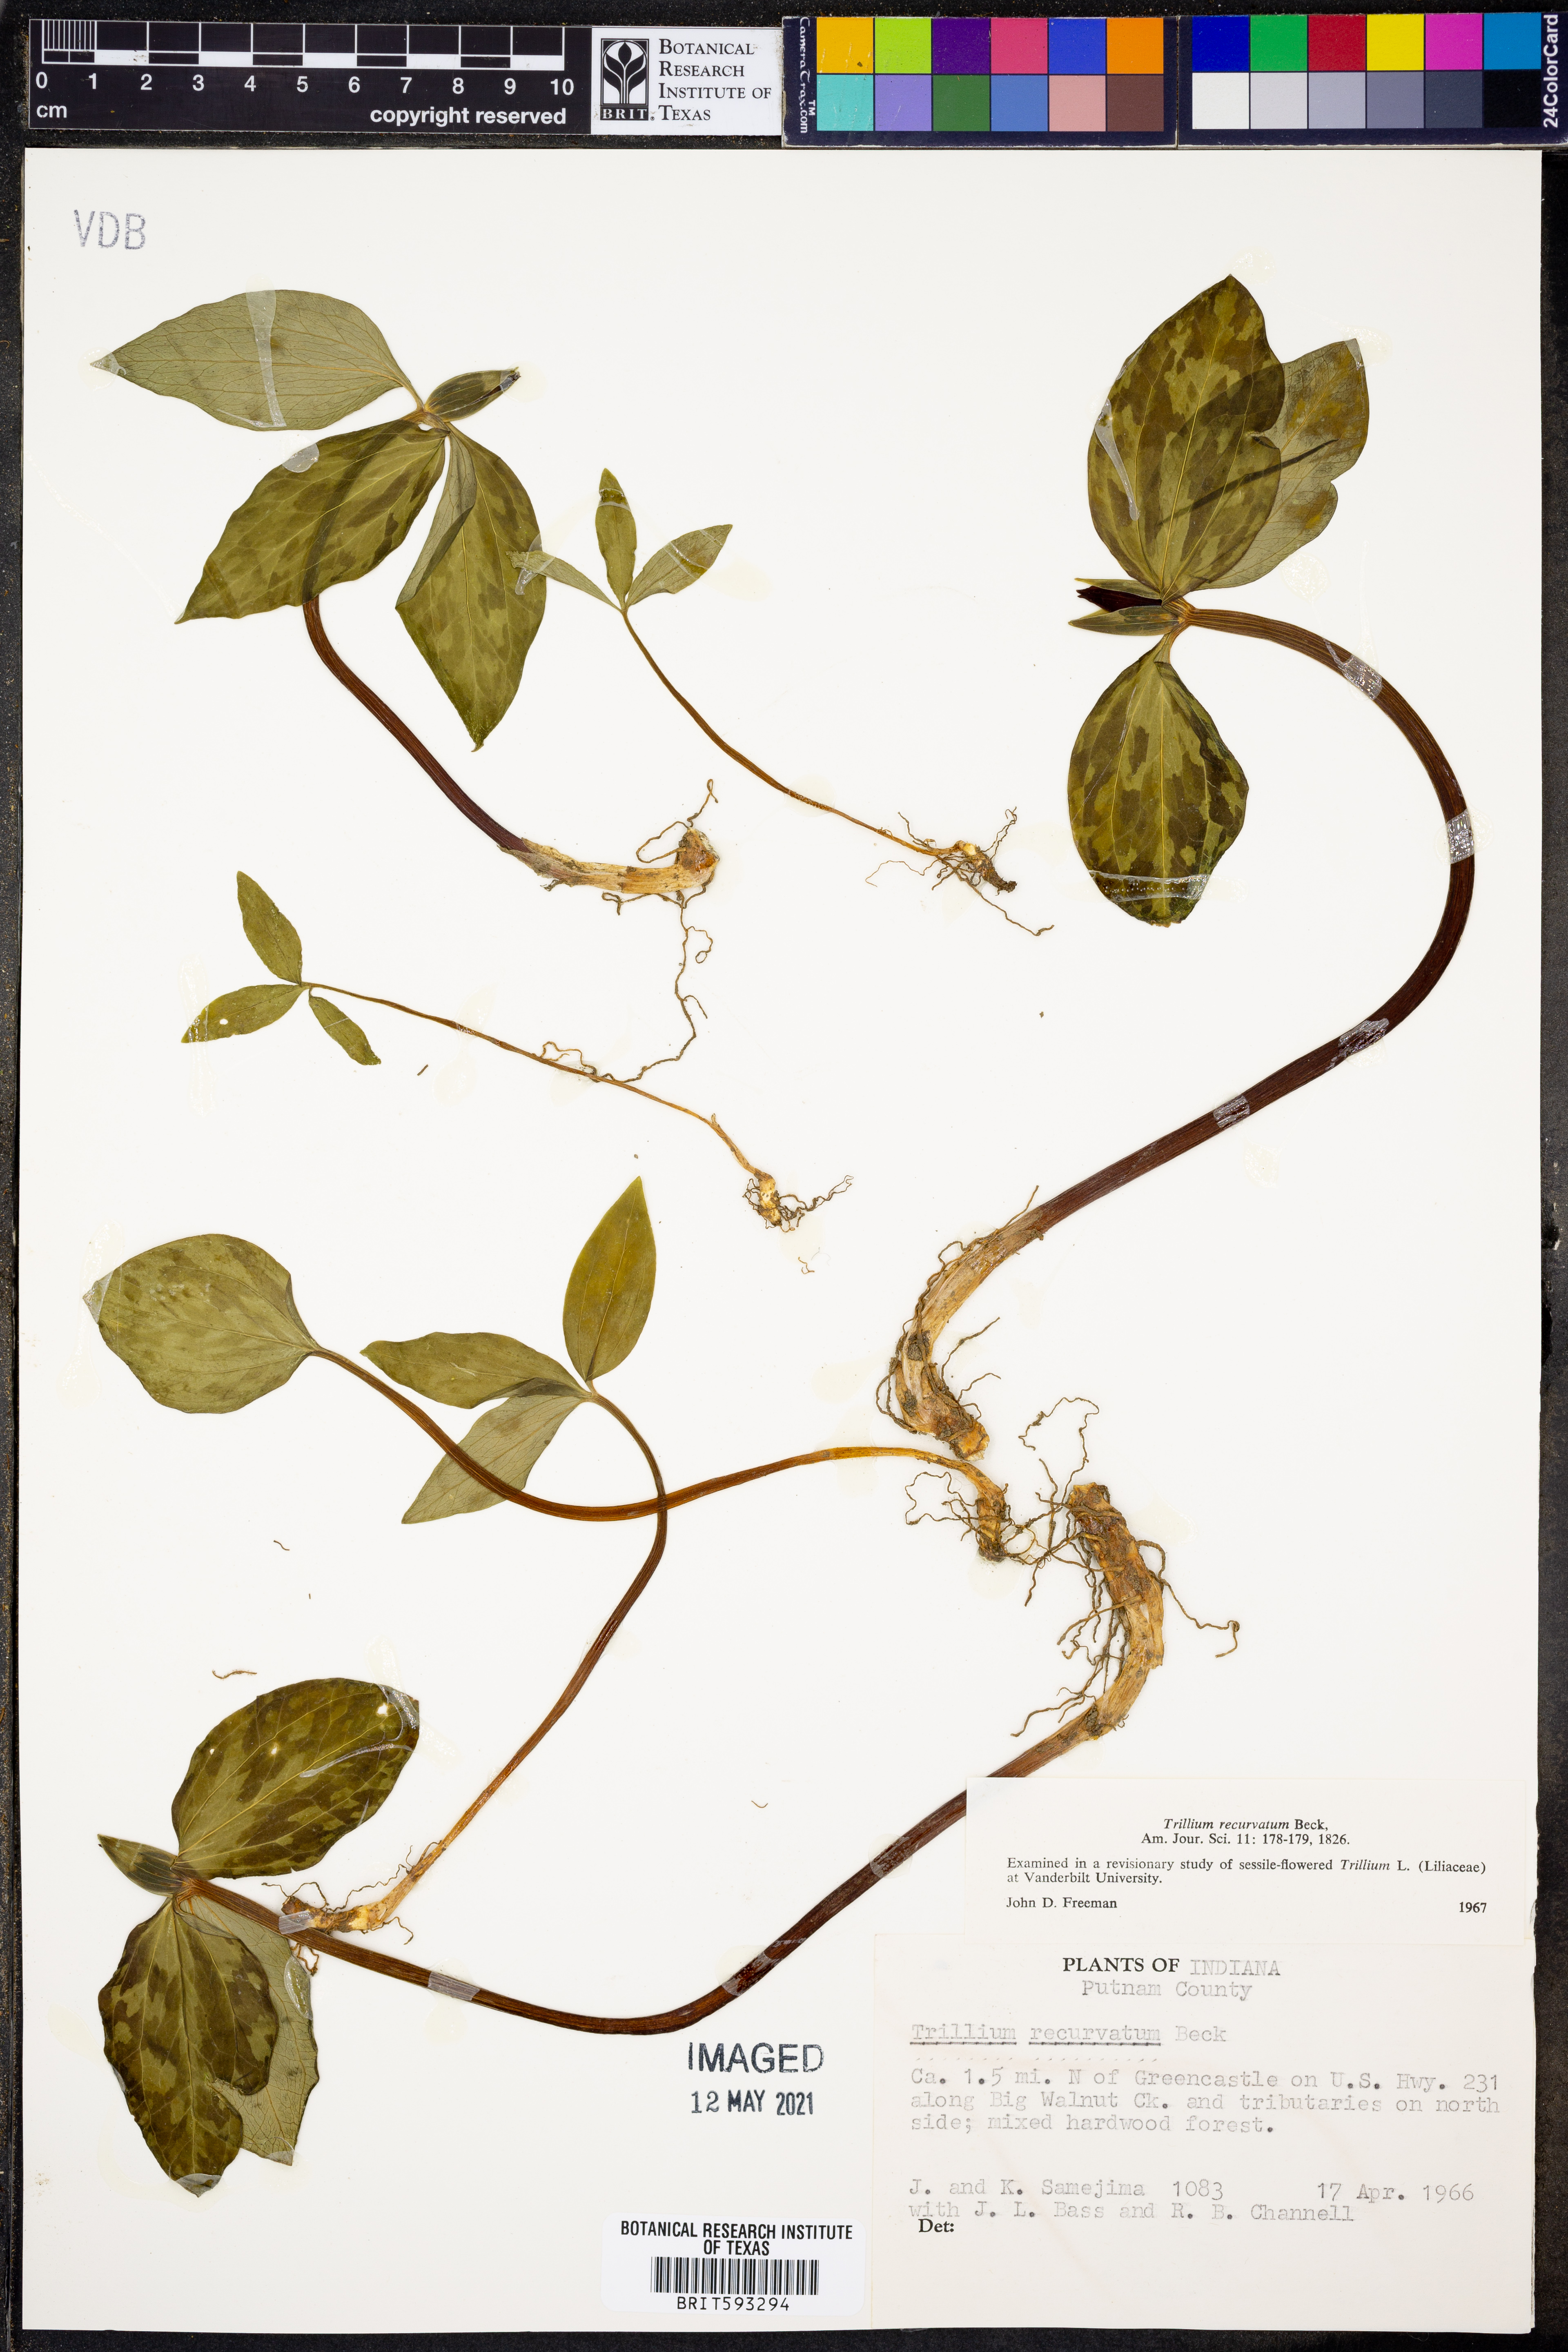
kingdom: Plantae
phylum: Tracheophyta
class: Liliopsida
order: Liliales
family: Melanthiaceae
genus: Trillium
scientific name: Trillium recurvatum
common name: Bloody butcher
